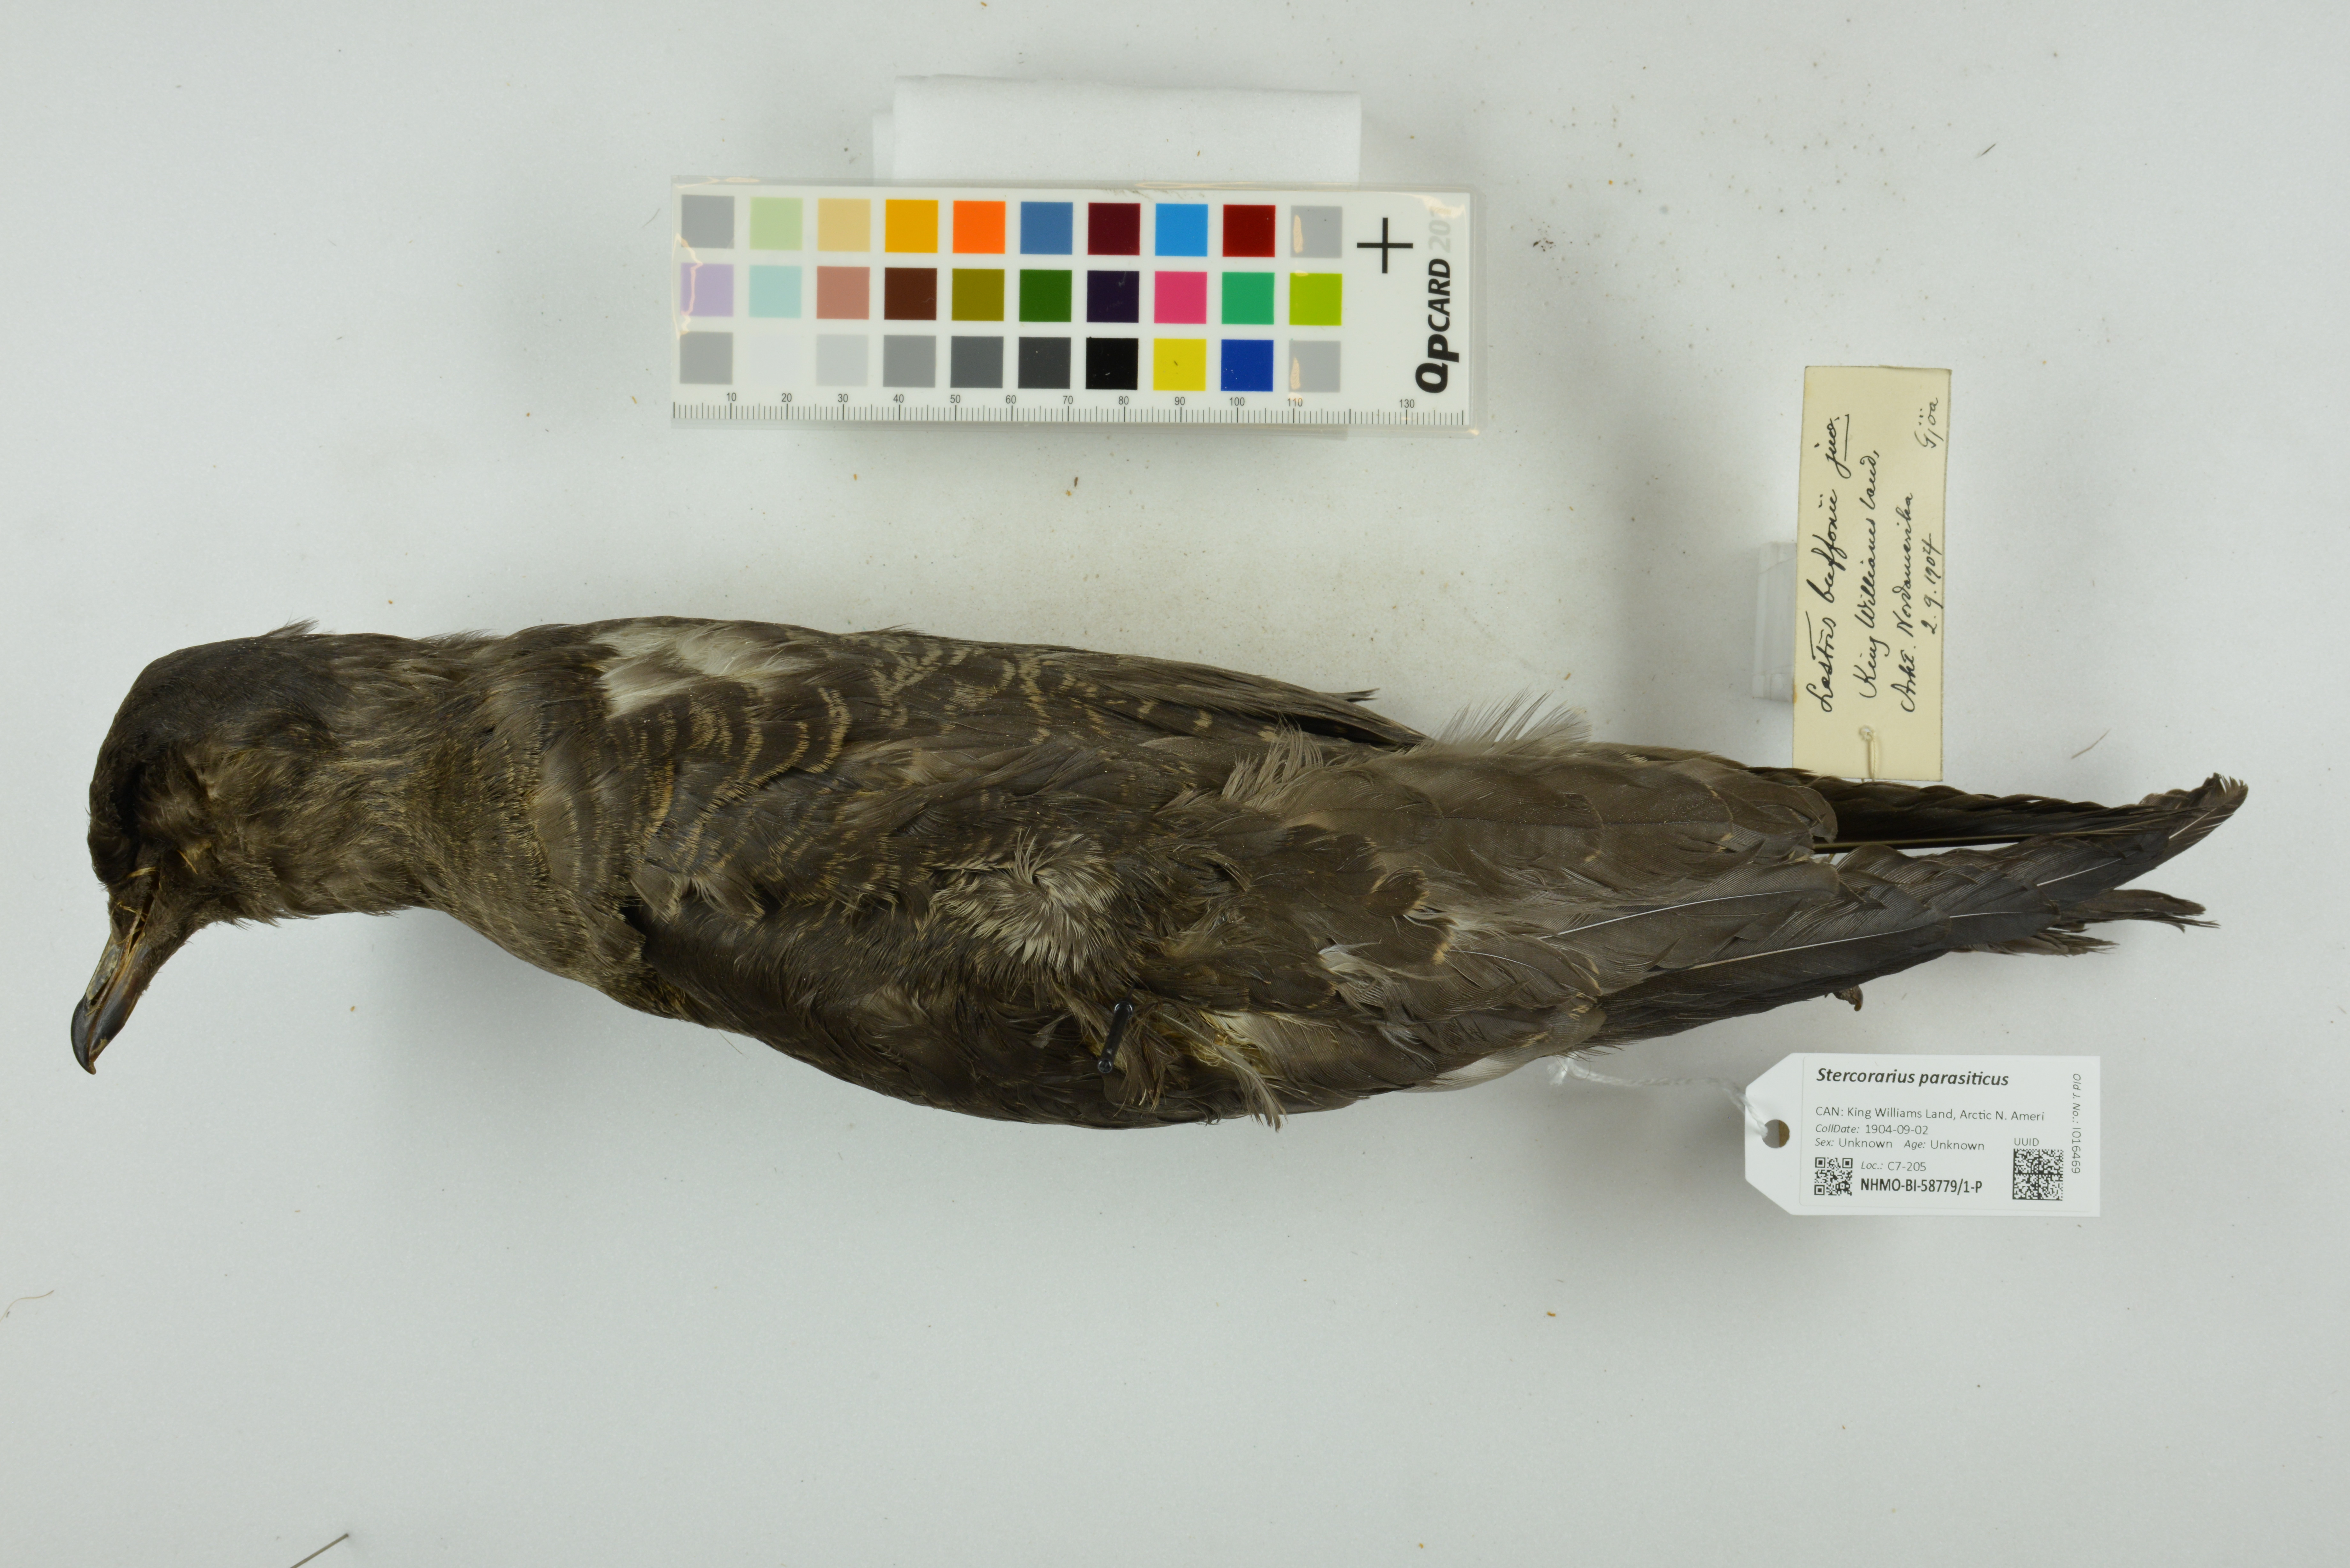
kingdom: Animalia
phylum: Chordata
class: Aves
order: Charadriiformes
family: Stercorariidae
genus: Stercorarius
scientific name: Stercorarius parasiticus
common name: Parasitic jaeger
